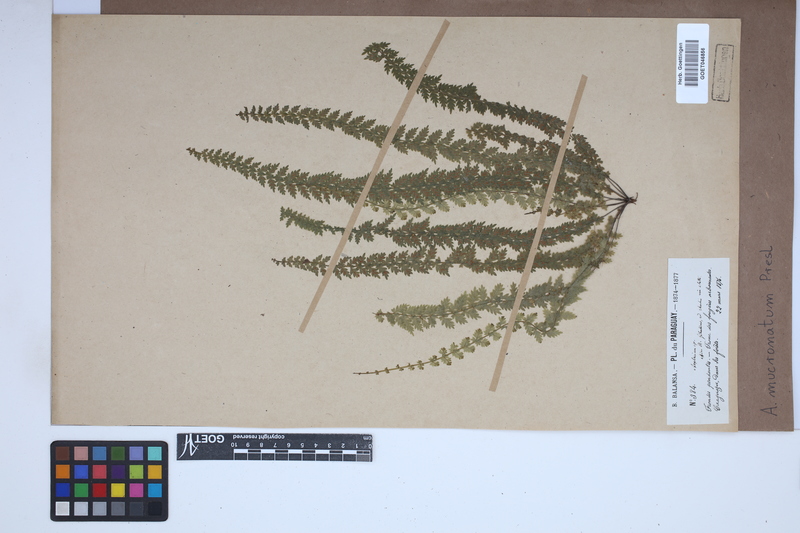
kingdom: Plantae
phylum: Tracheophyta
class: Polypodiopsida
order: Polypodiales
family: Aspleniaceae
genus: Asplenium
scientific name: Asplenium mucronatum
